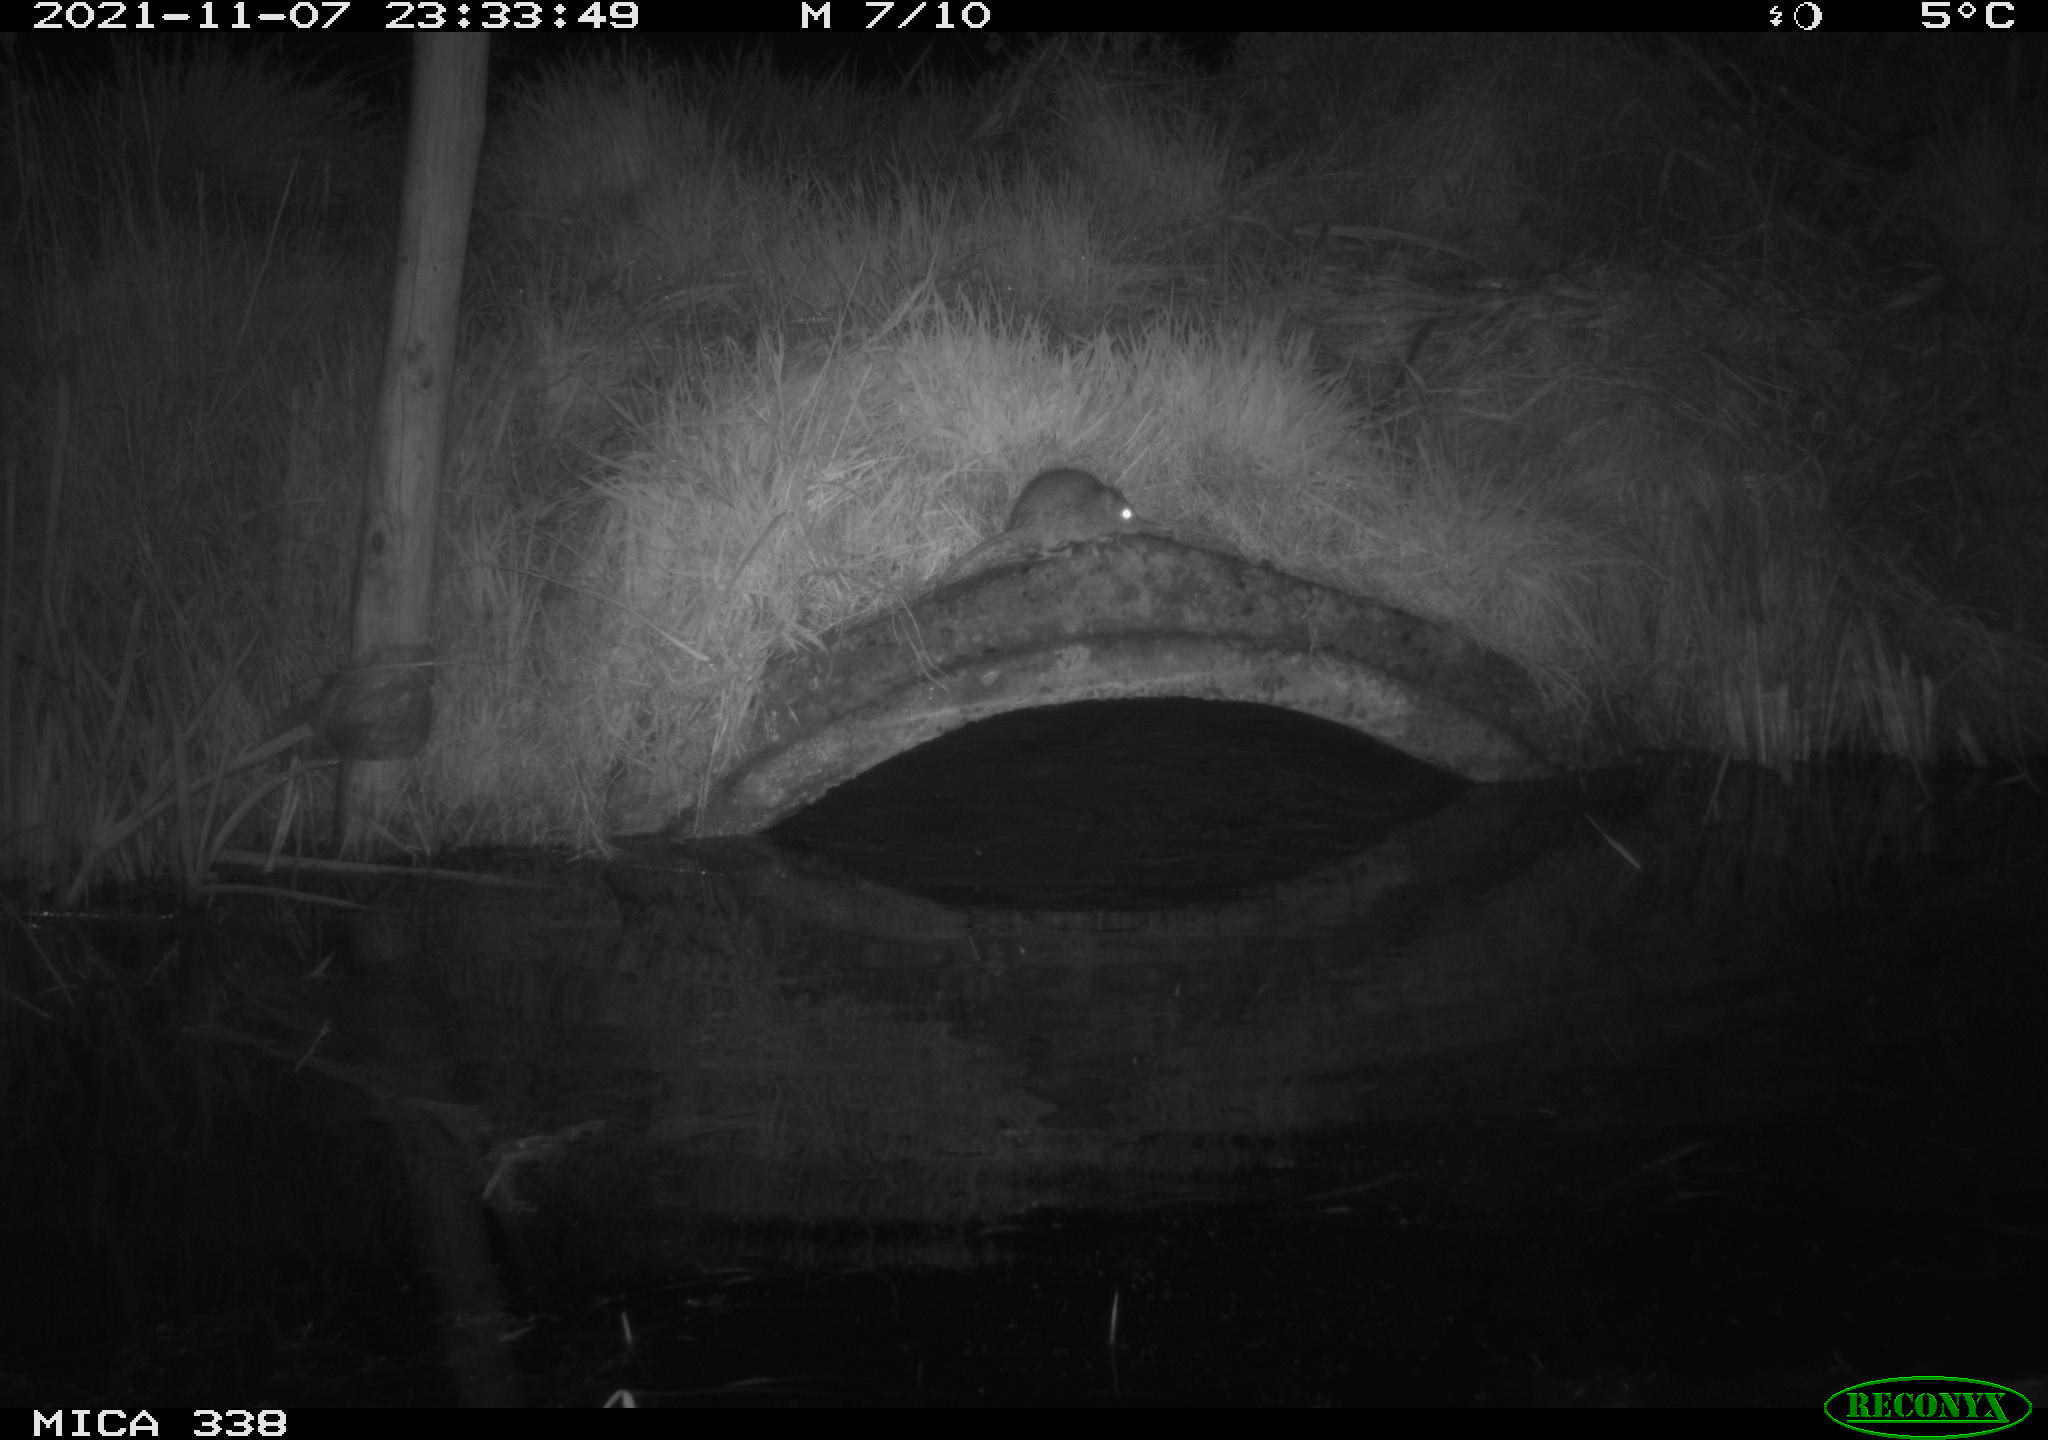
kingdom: Animalia
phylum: Chordata
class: Mammalia
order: Rodentia
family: Muridae
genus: Rattus
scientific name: Rattus norvegicus
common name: Brown rat
